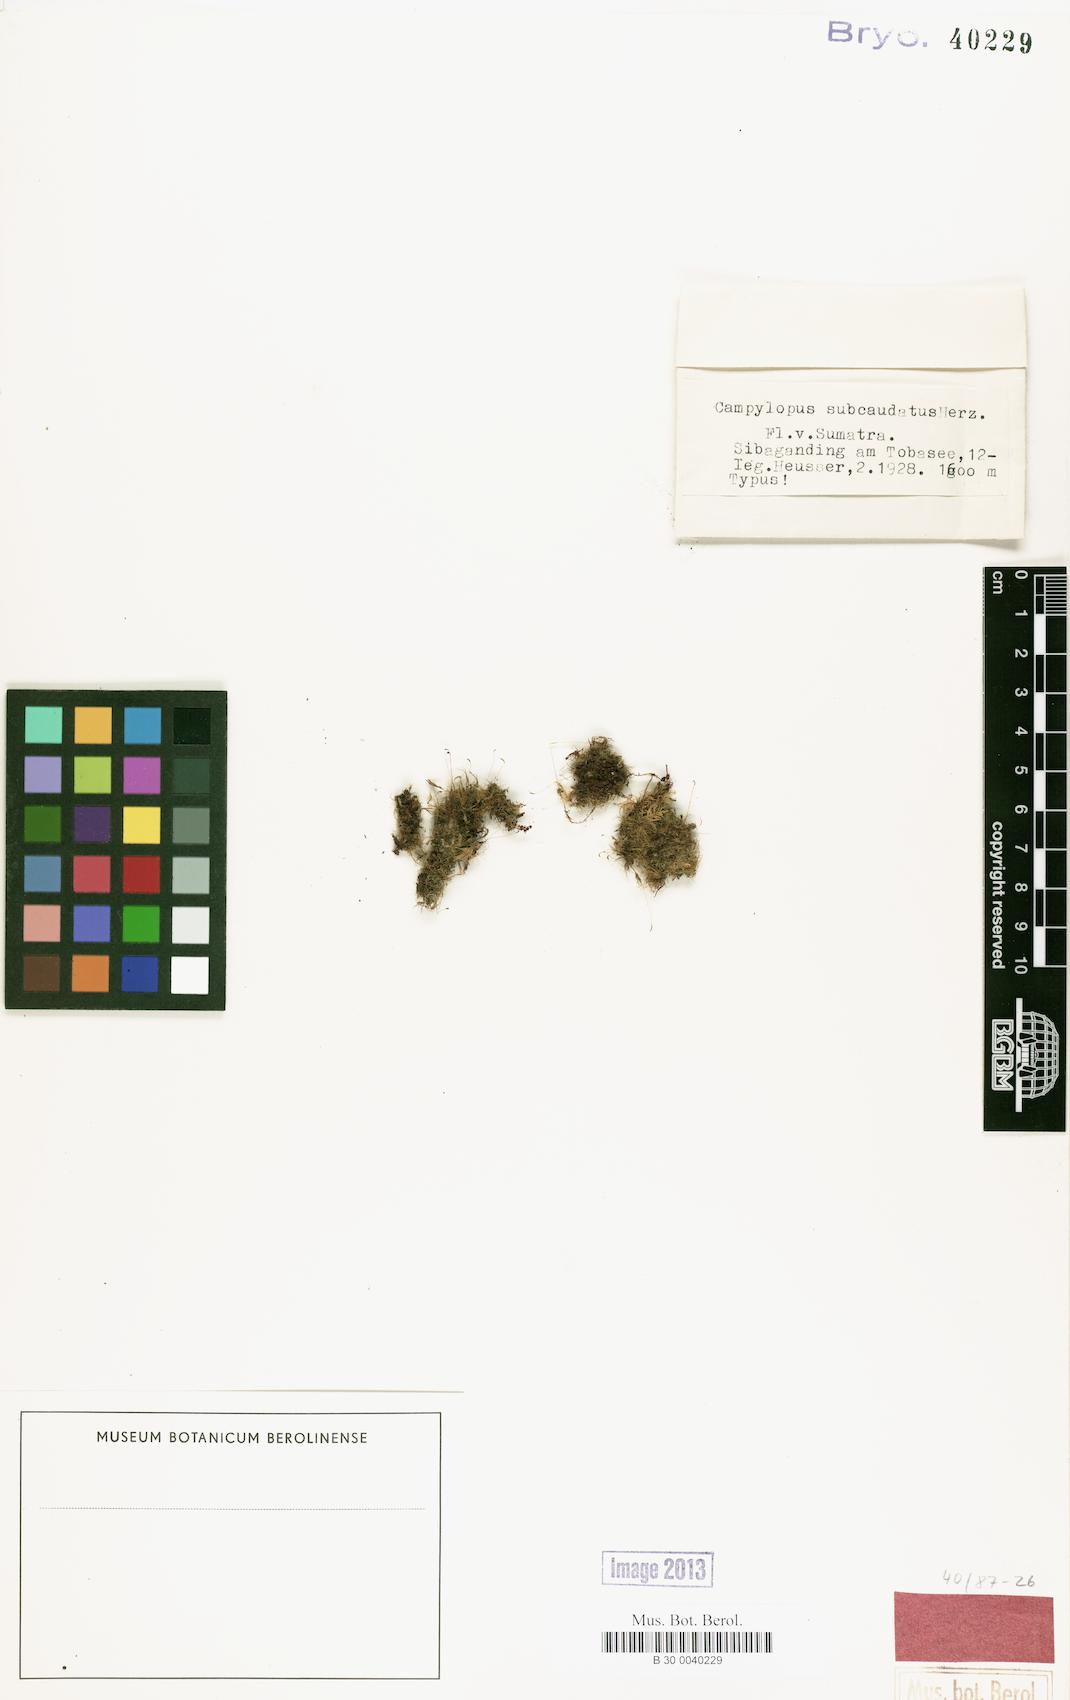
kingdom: Plantae
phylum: Bryophyta
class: Bryopsida
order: Dicranales
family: Leucobryaceae
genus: Campylopus
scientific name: Campylopus subcomosus
